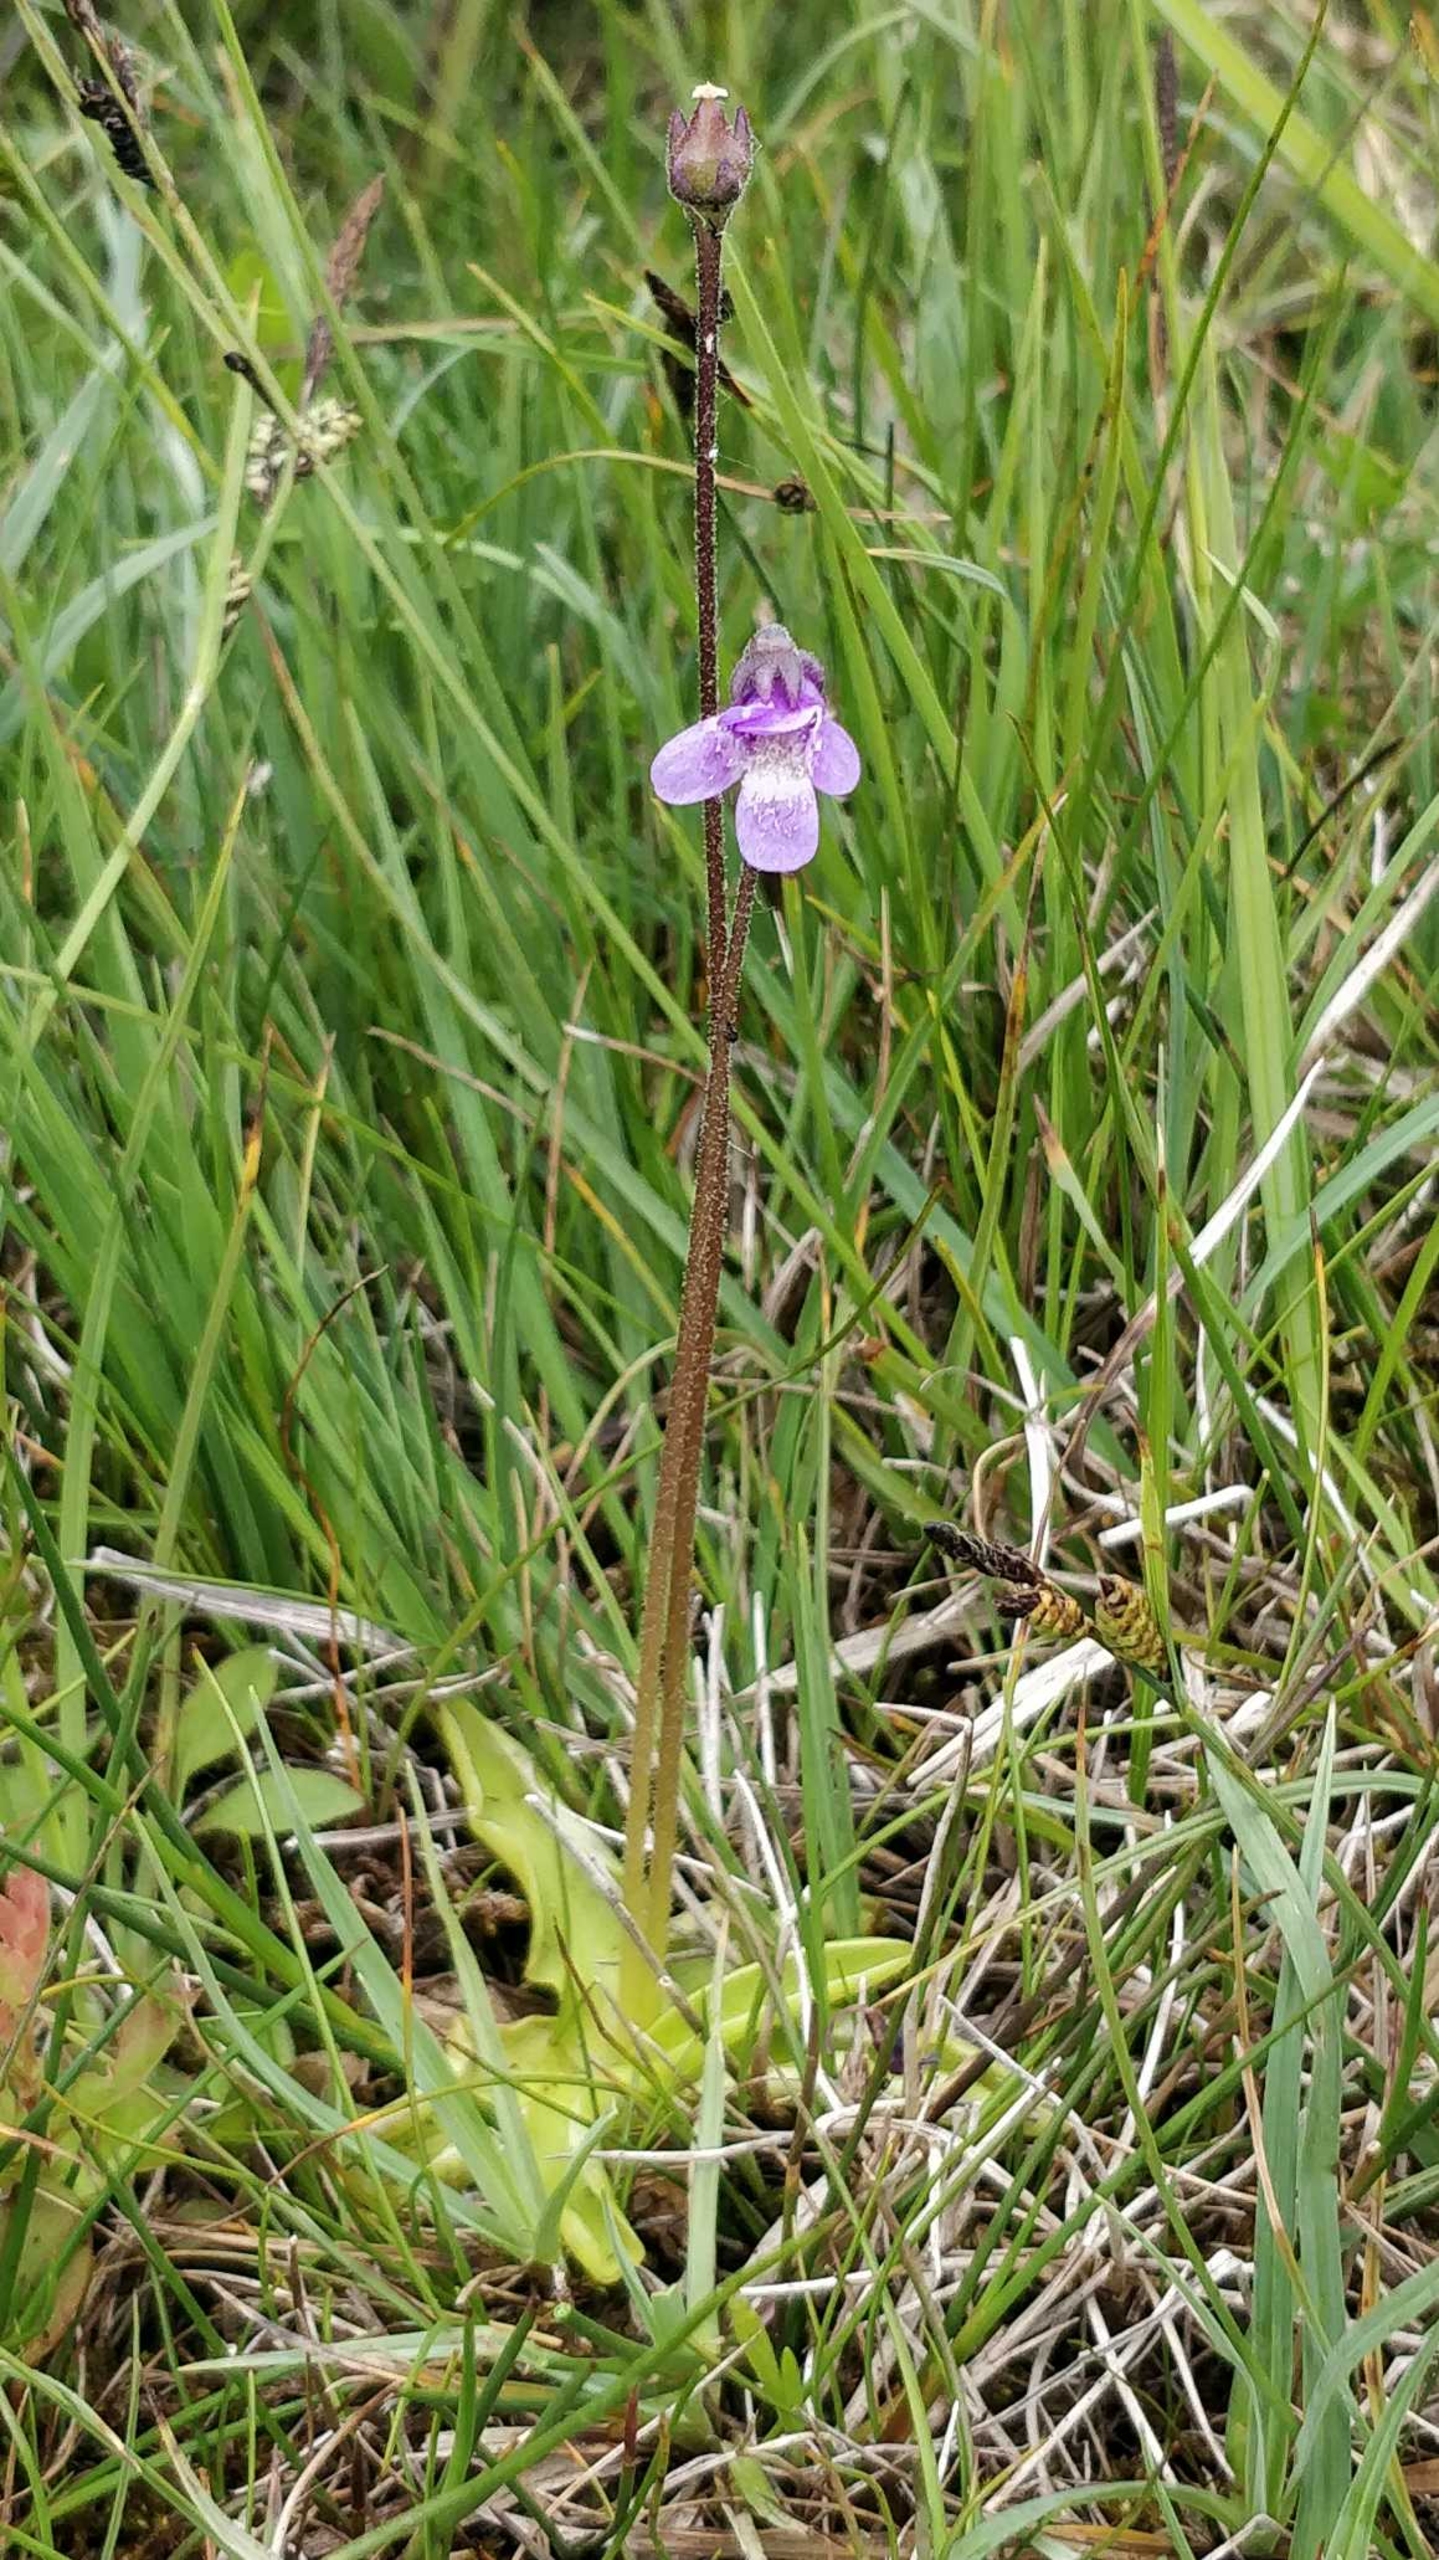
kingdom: Plantae
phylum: Tracheophyta
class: Magnoliopsida
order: Lamiales
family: Lentibulariaceae
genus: Pinguicula
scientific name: Pinguicula vulgaris
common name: Vibefedt
